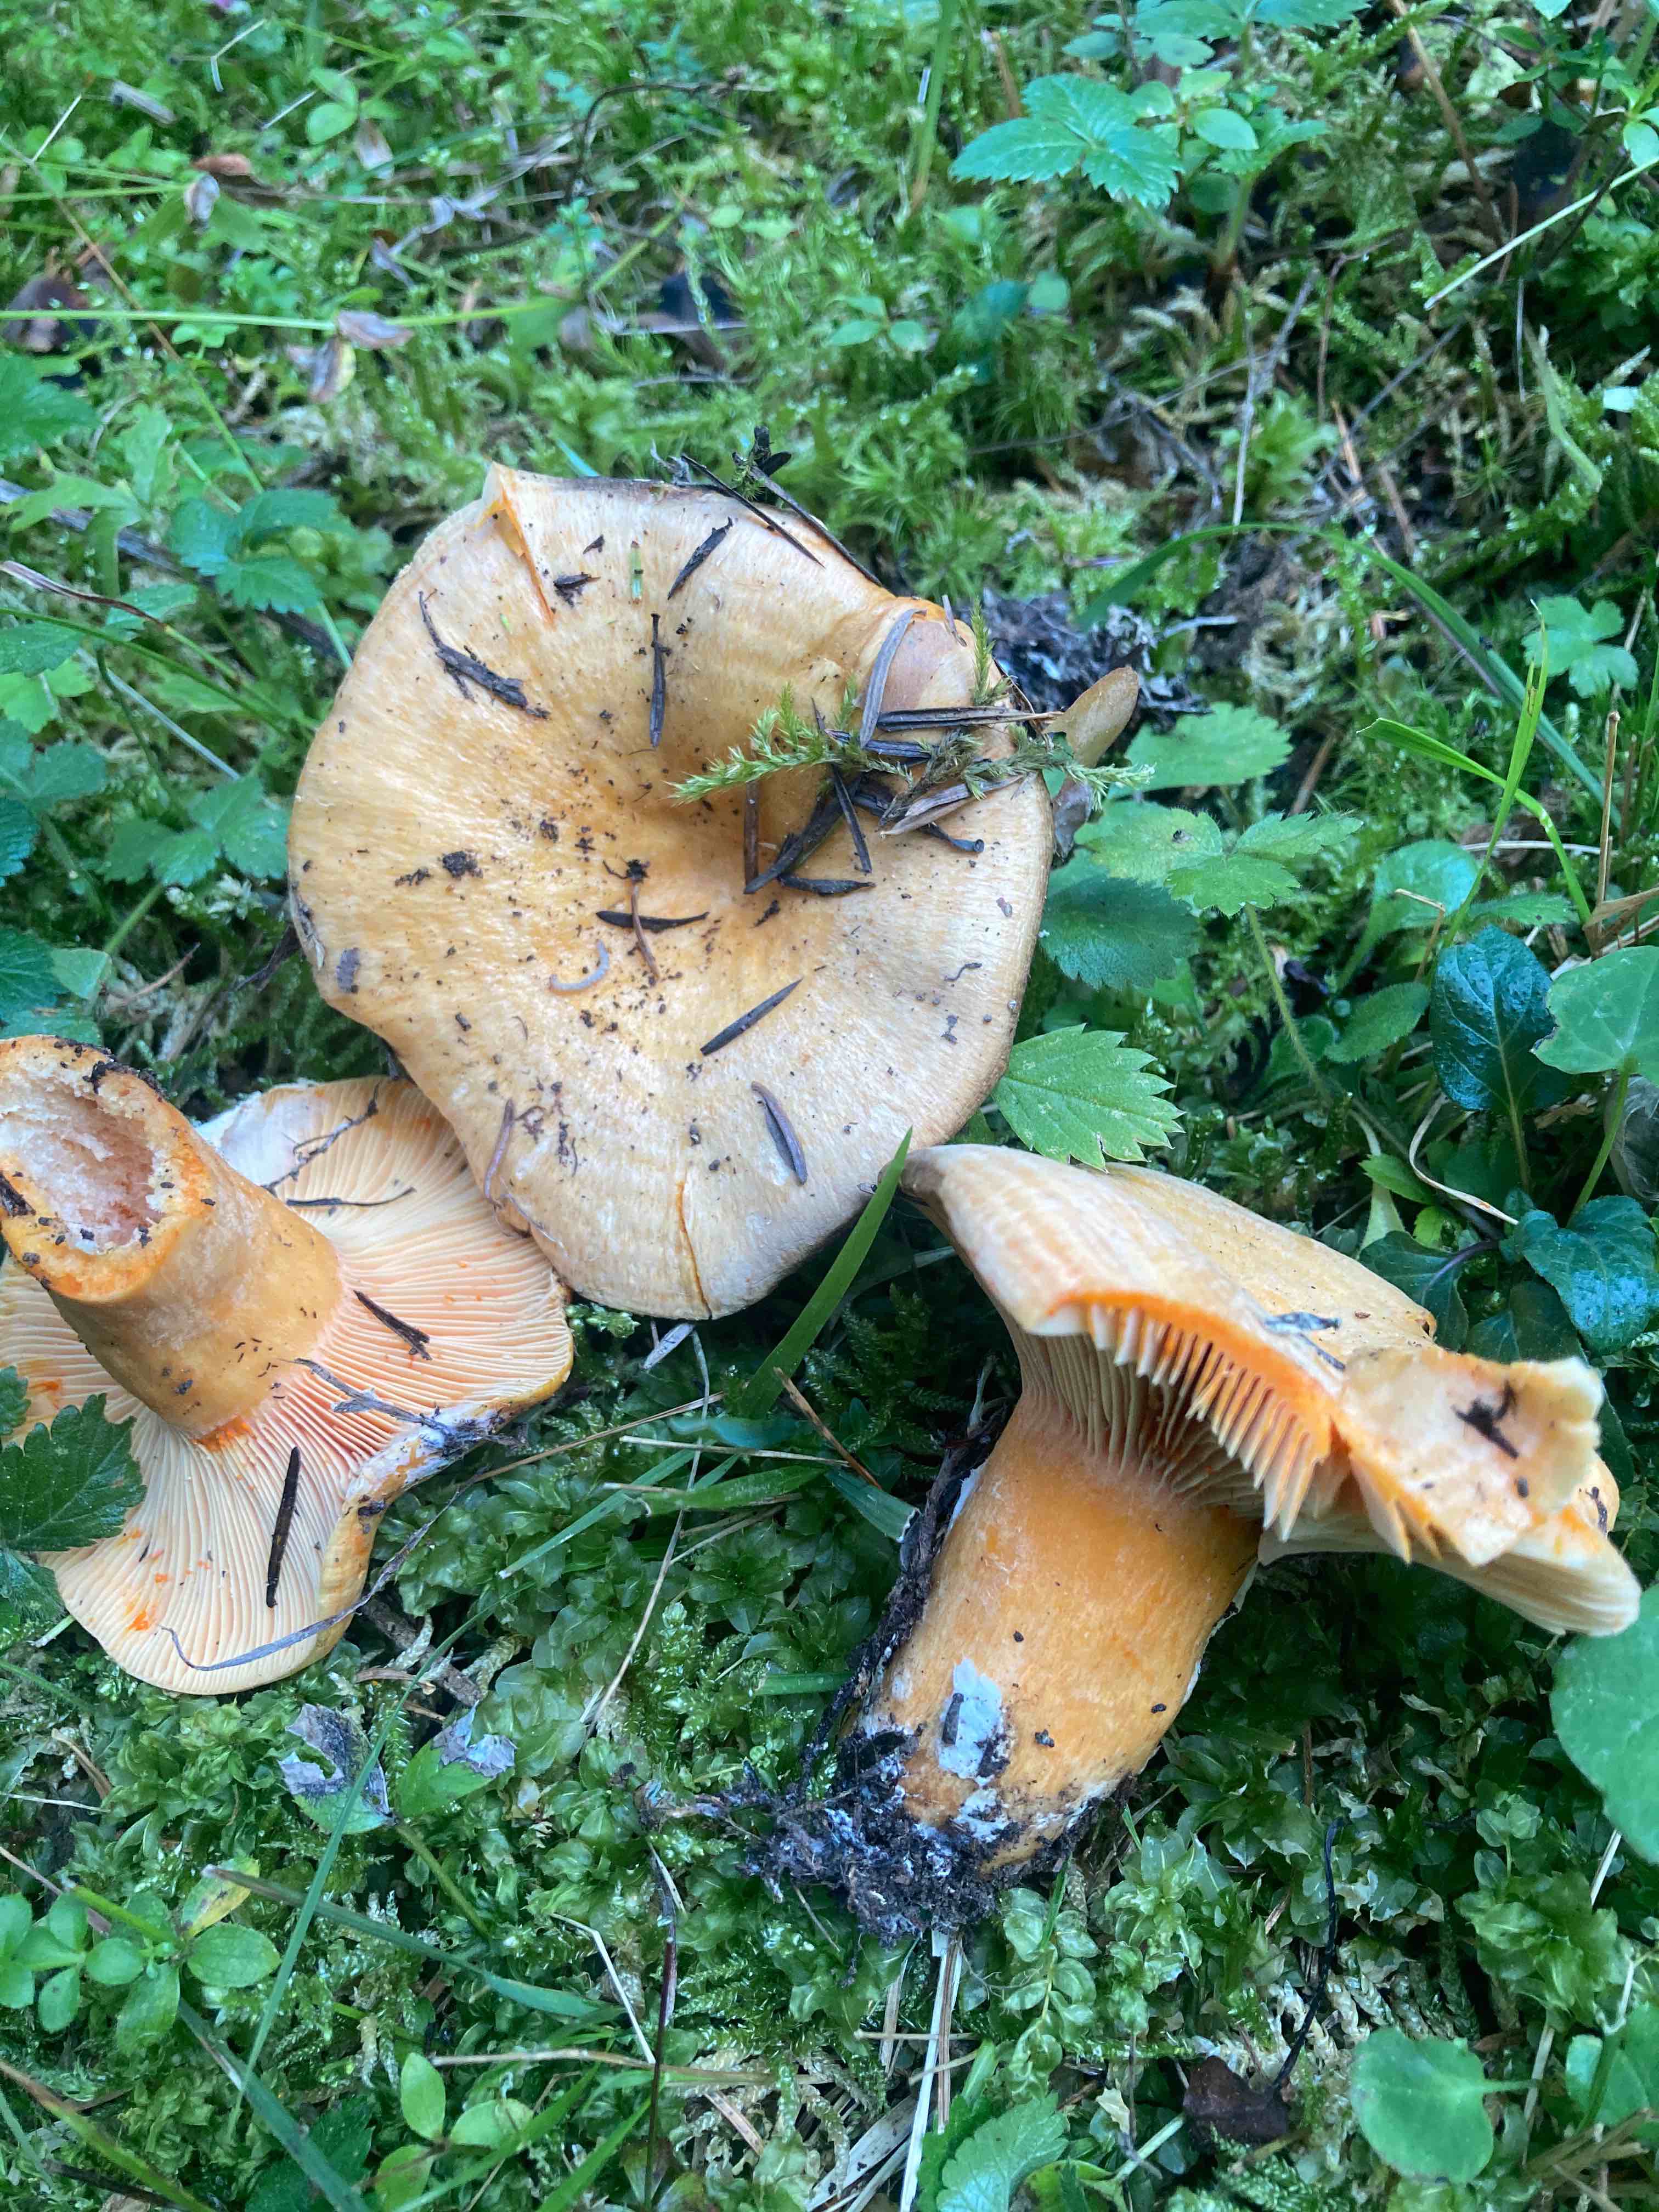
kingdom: Fungi
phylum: Basidiomycota
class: Agaricomycetes
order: Russulales
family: Russulaceae
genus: Lactarius
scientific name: Lactarius salmonicolor
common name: laksefarvet mælkehat
